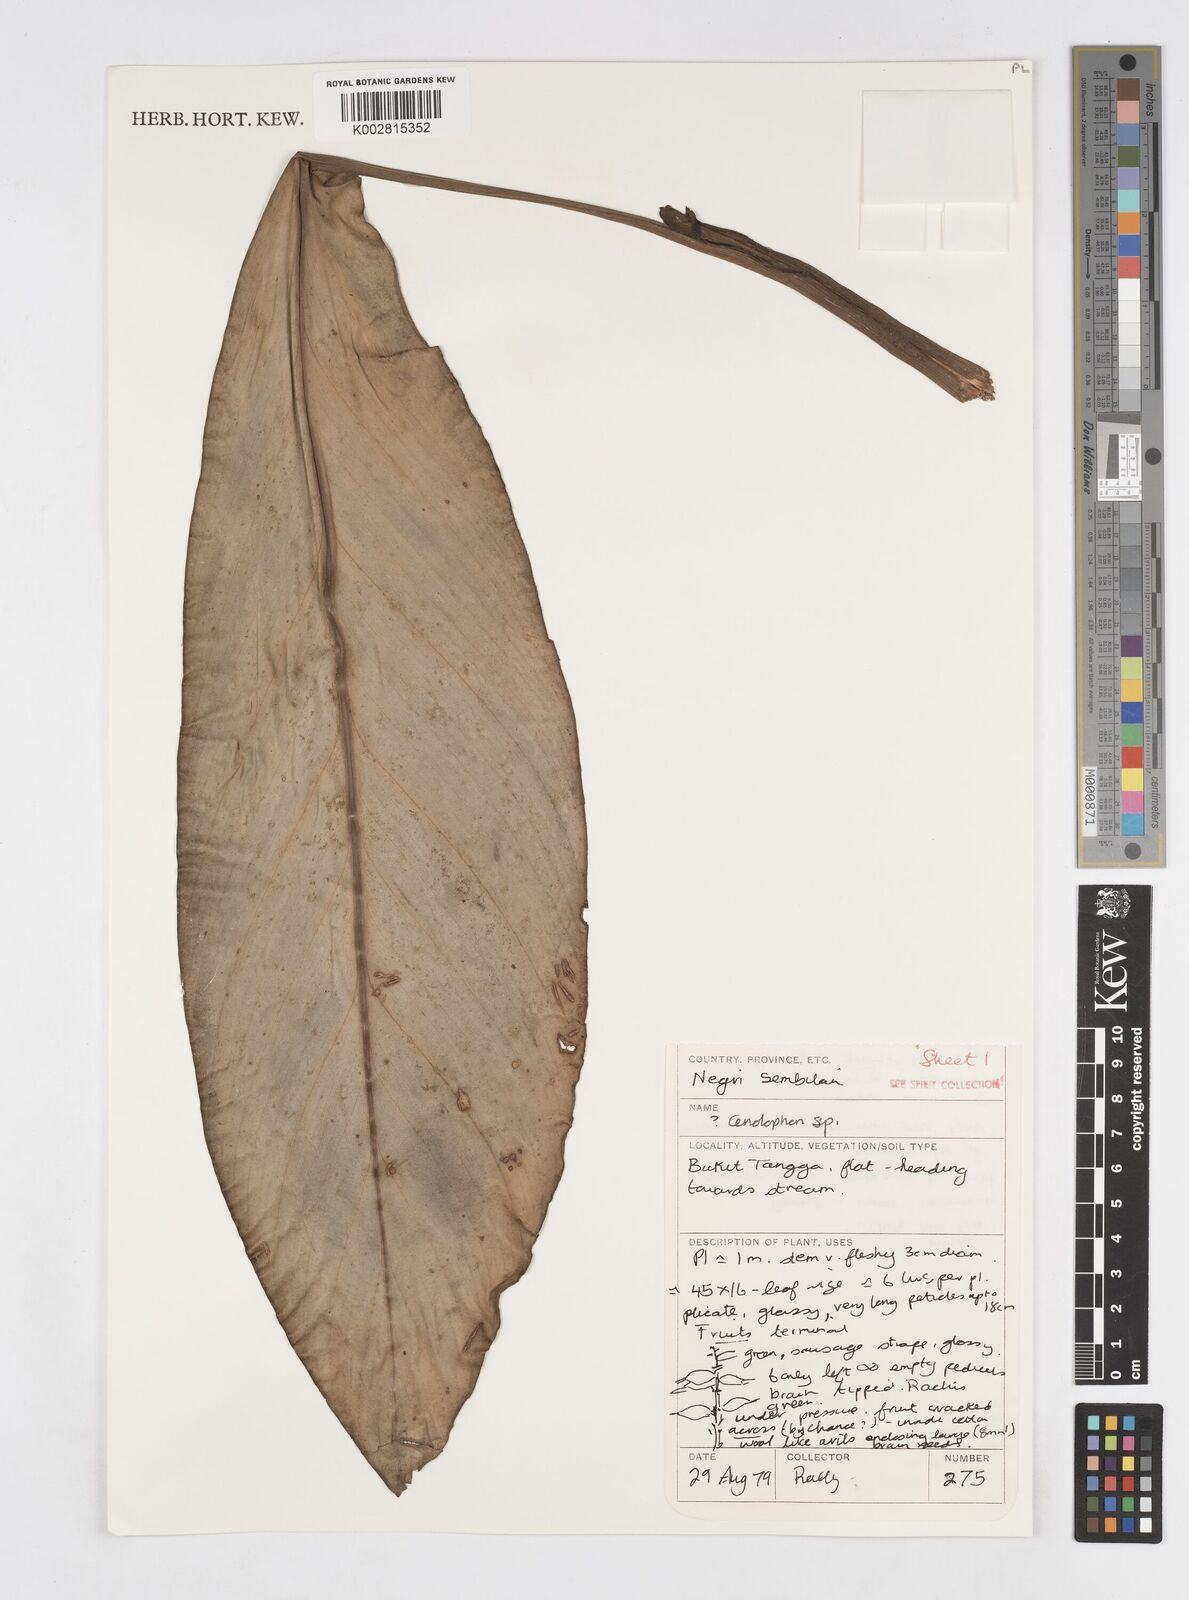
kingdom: Plantae
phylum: Tracheophyta
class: Liliopsida
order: Zingiberales
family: Zingiberaceae
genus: Alpinia
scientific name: Alpinia
